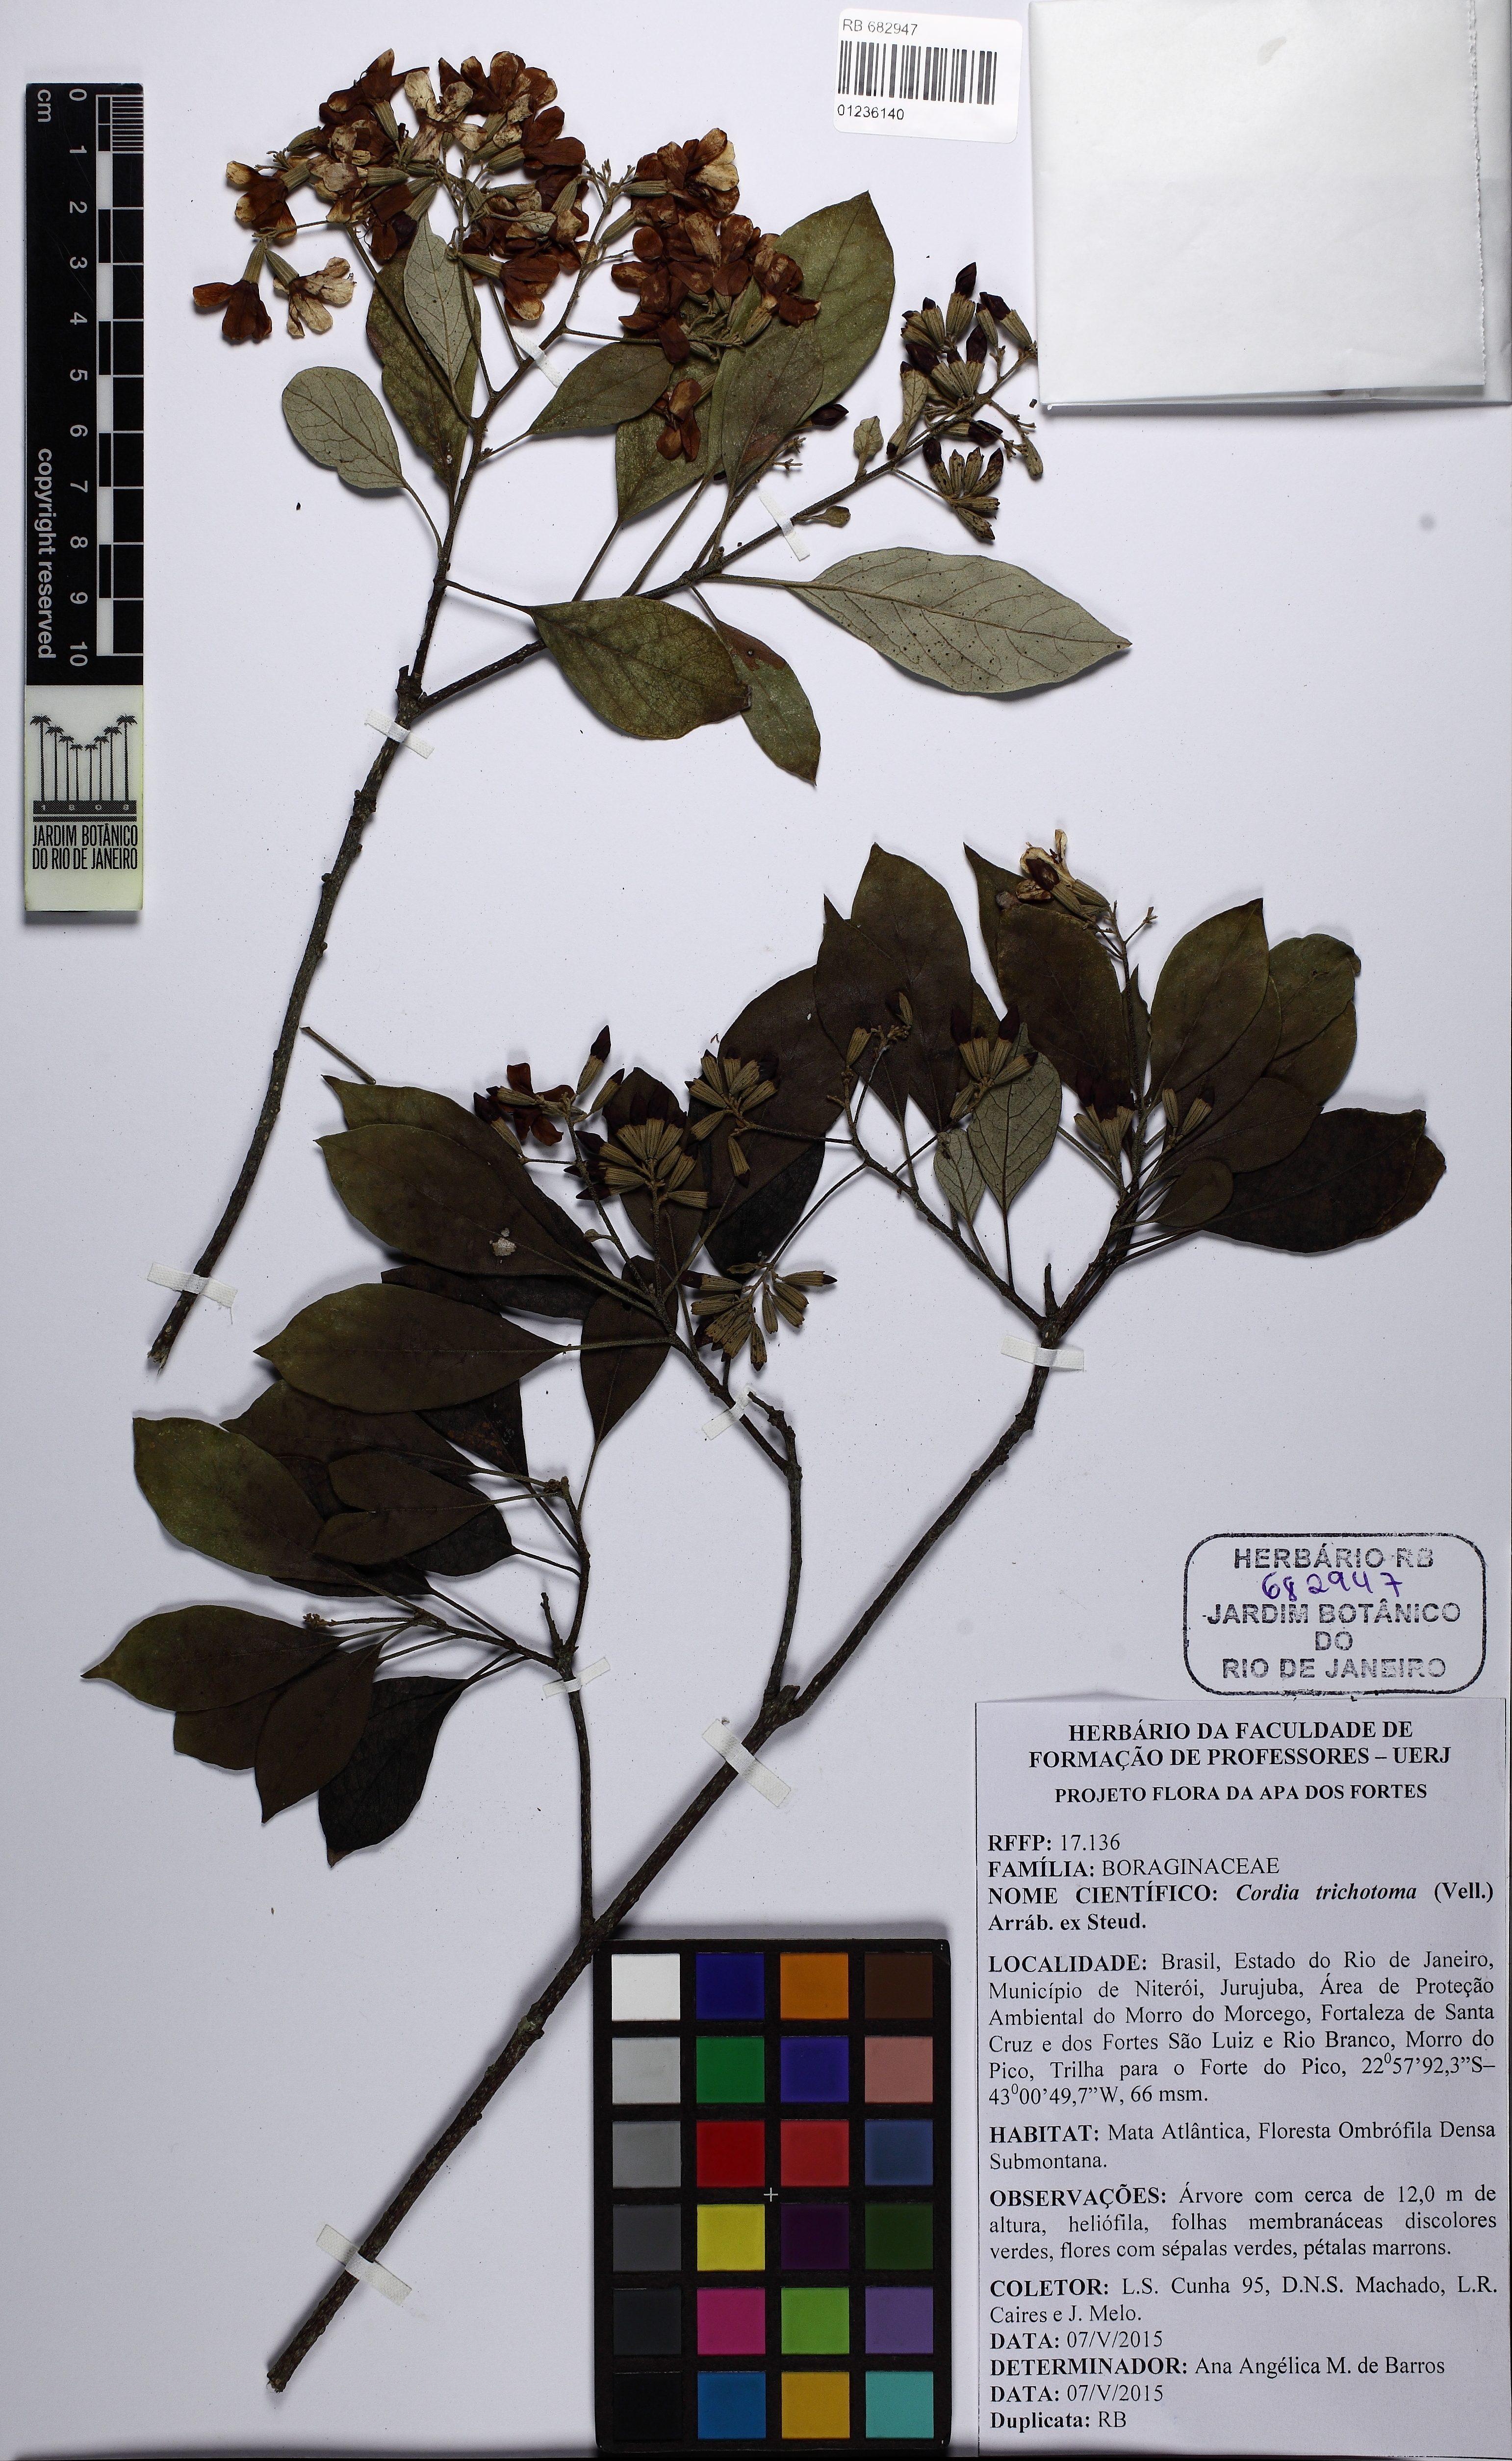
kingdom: Plantae
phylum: Tracheophyta
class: Magnoliopsida
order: Boraginales
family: Cordiaceae
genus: Cordia
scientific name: Cordia trichotoma
